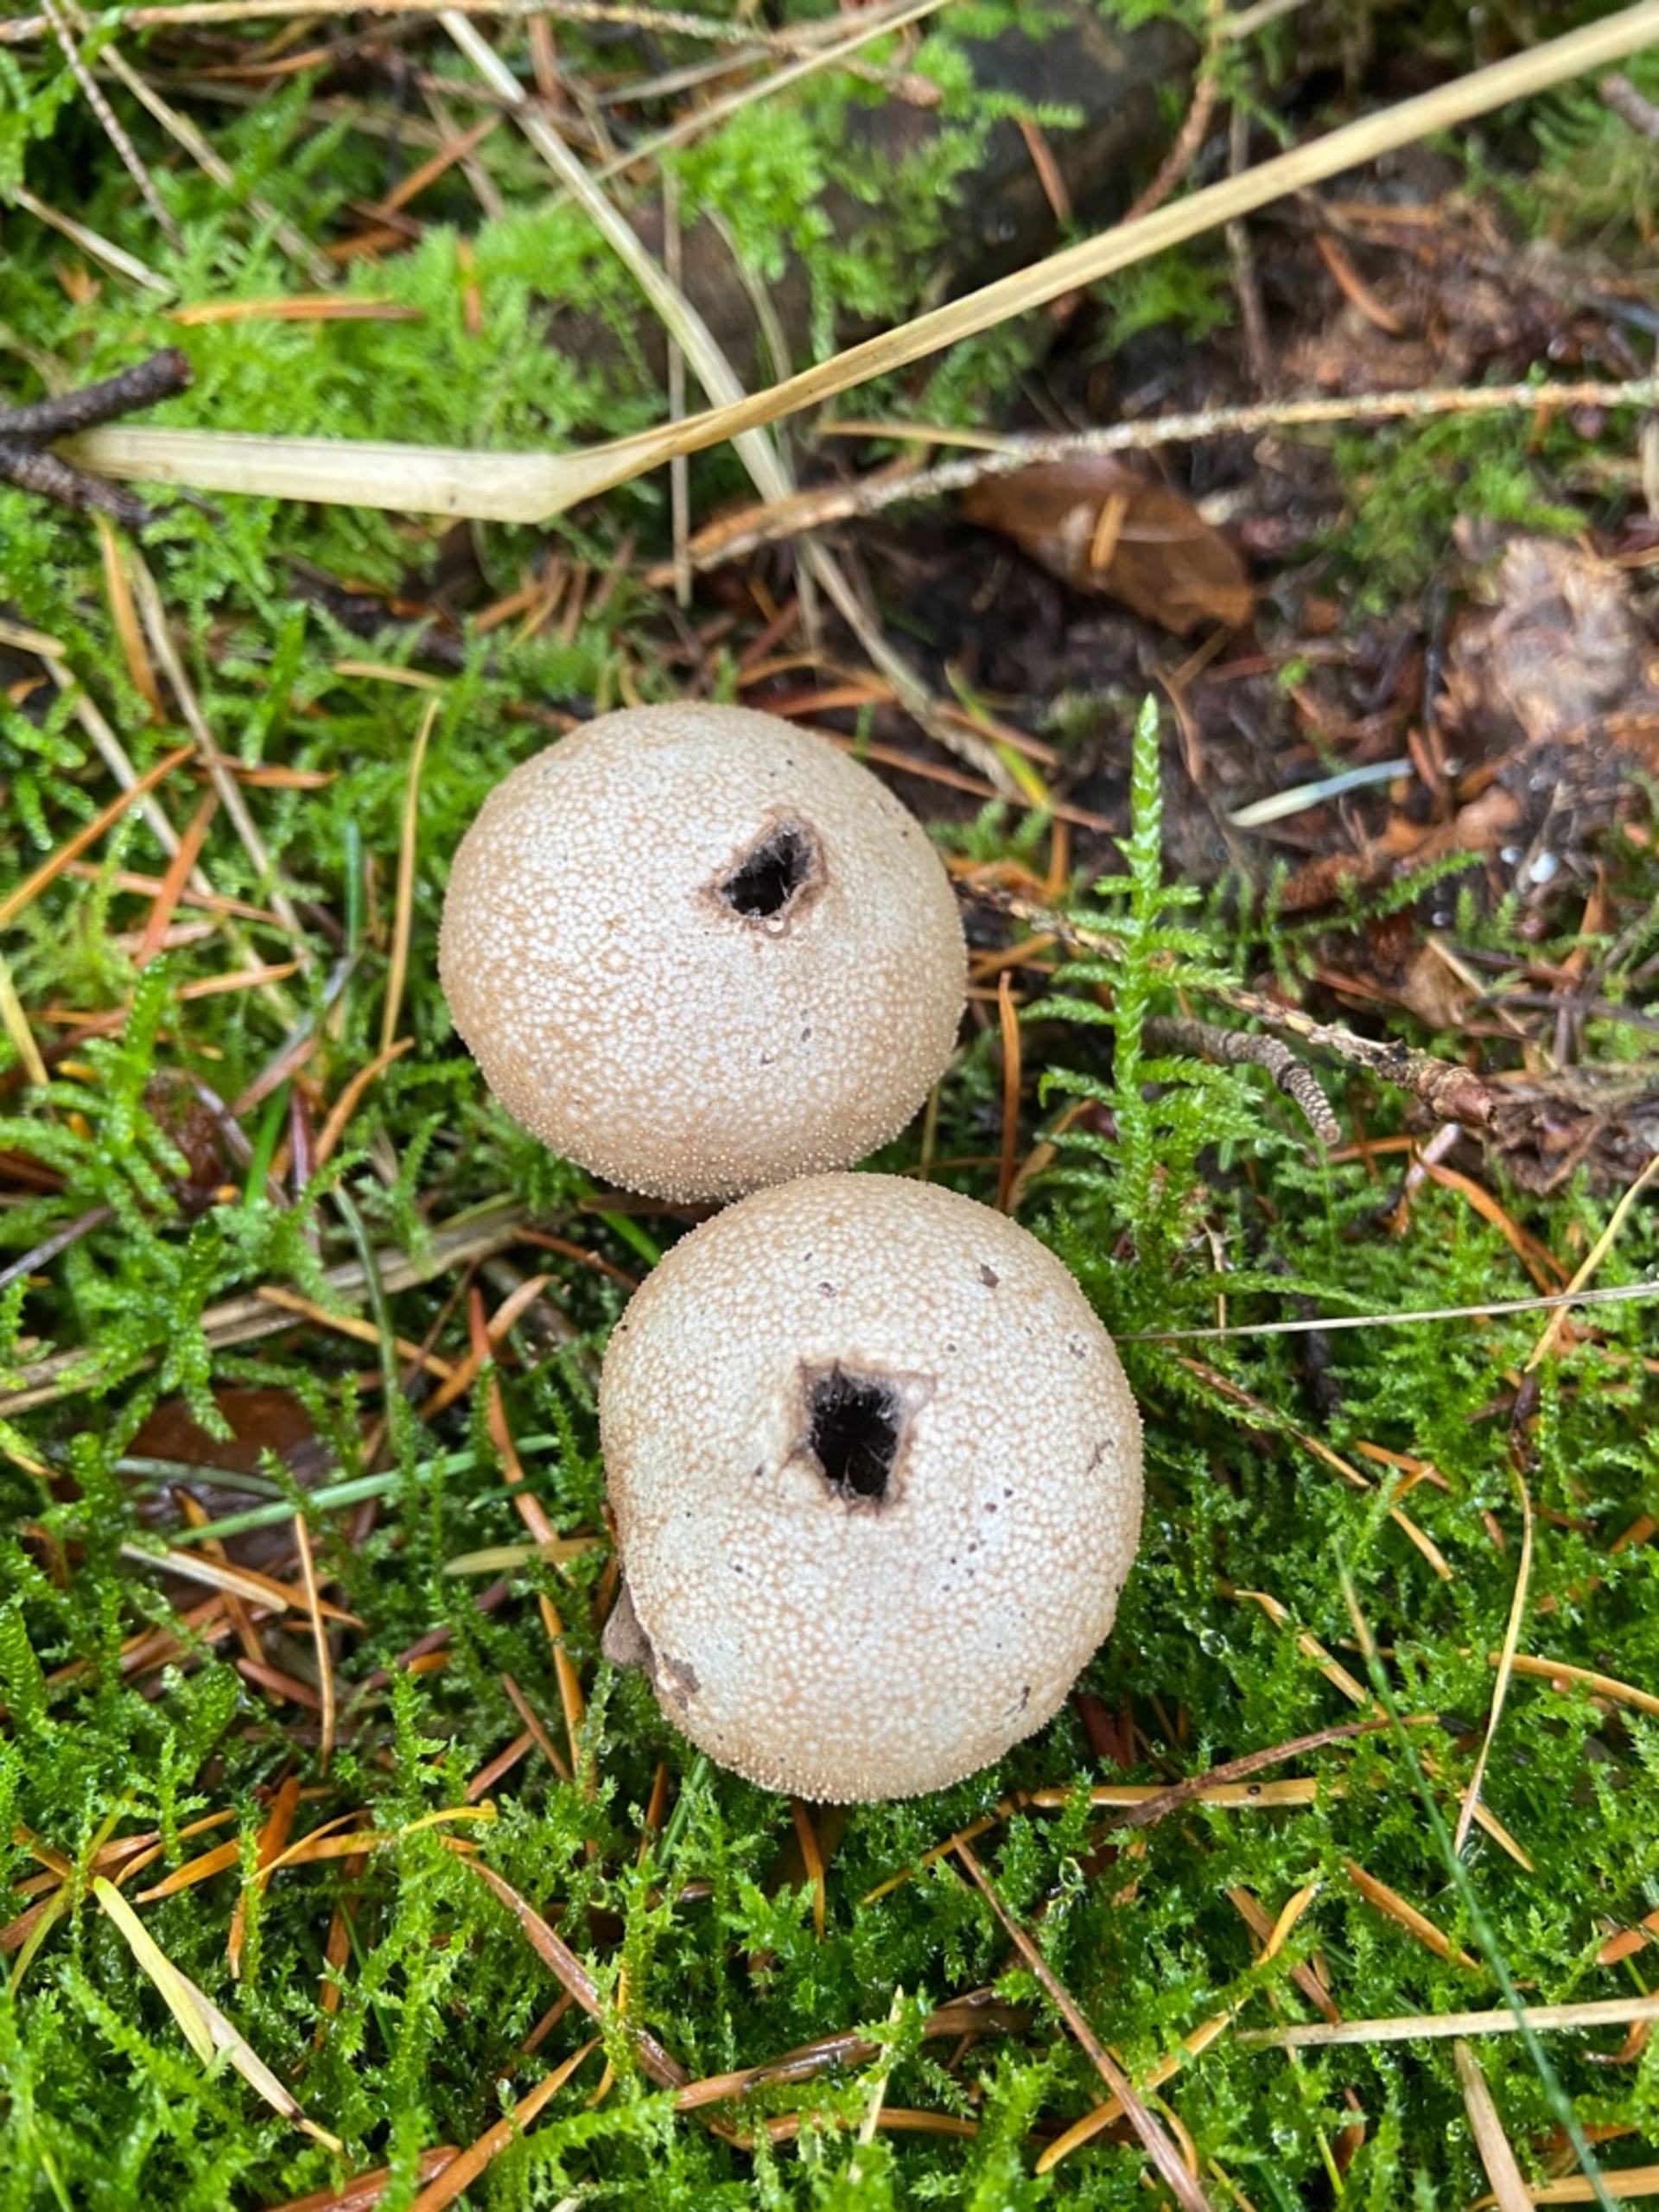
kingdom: Fungi
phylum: Basidiomycota
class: Agaricomycetes
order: Agaricales
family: Lycoperdaceae
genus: Lycoperdon
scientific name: Lycoperdon
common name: Støvbold
